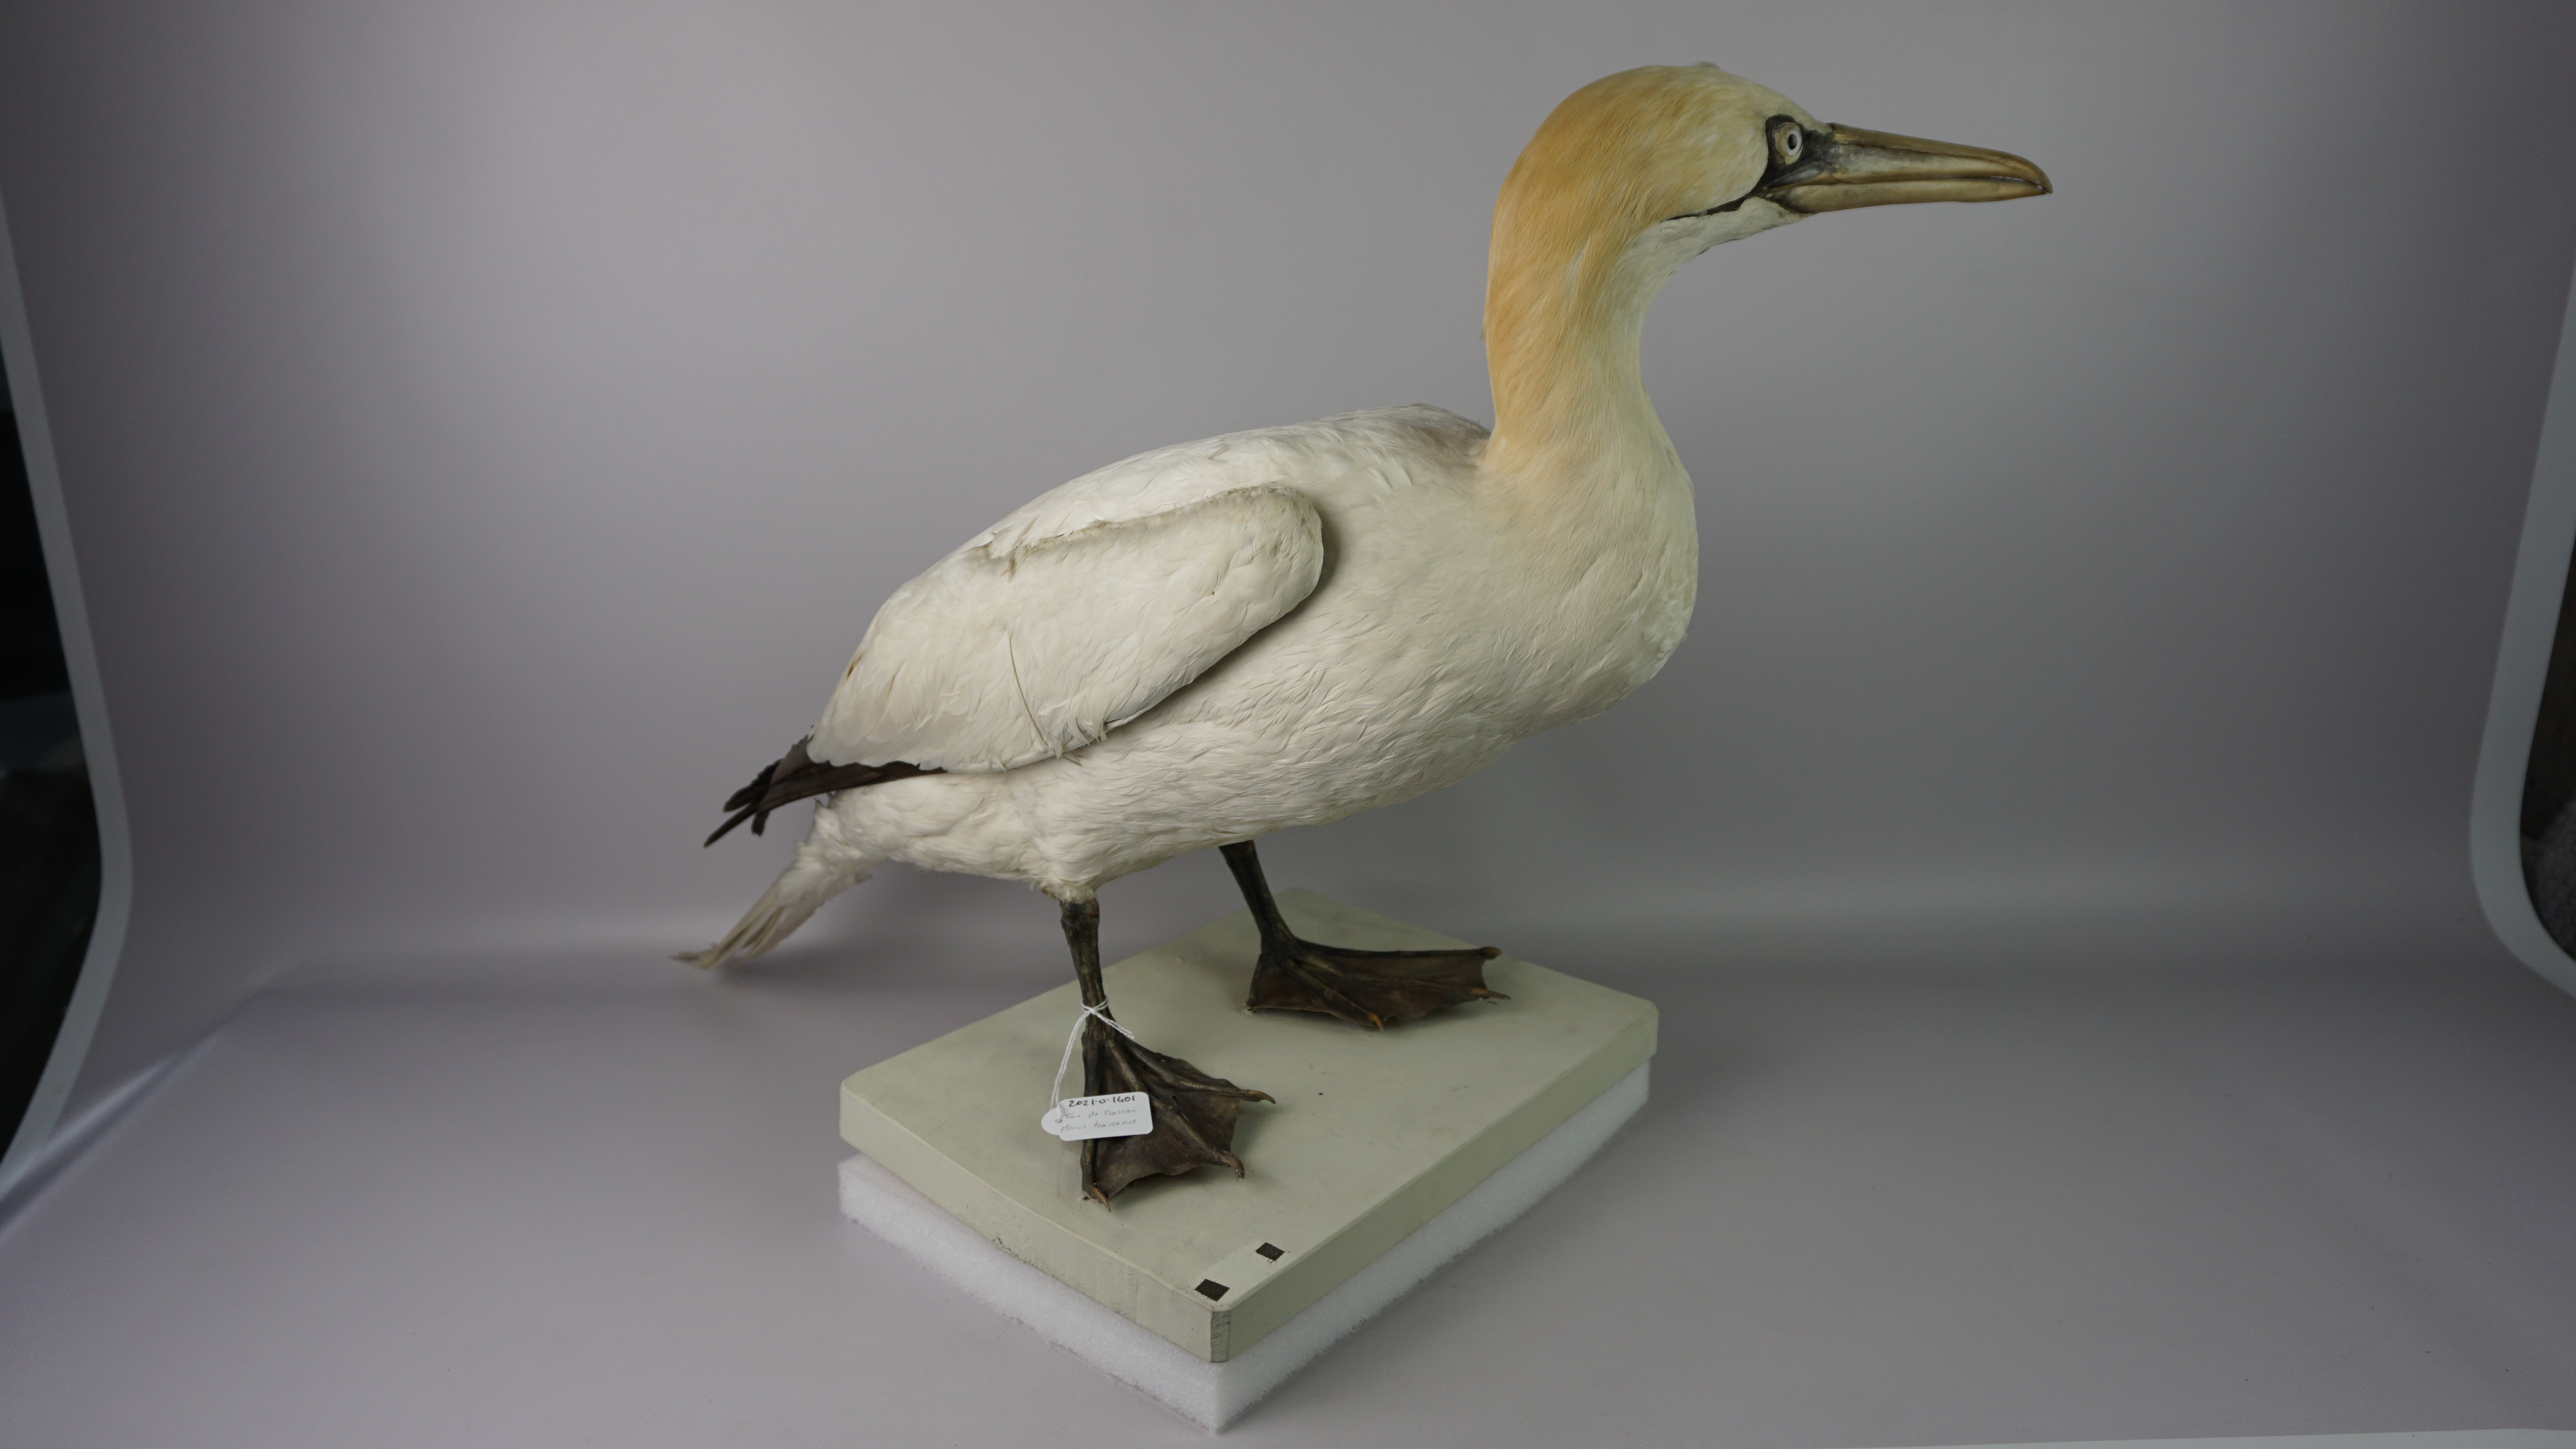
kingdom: Animalia
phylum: Chordata
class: Aves
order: Suliformes
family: Sulidae
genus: Morus
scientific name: Morus bassanus
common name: Northern gannet
